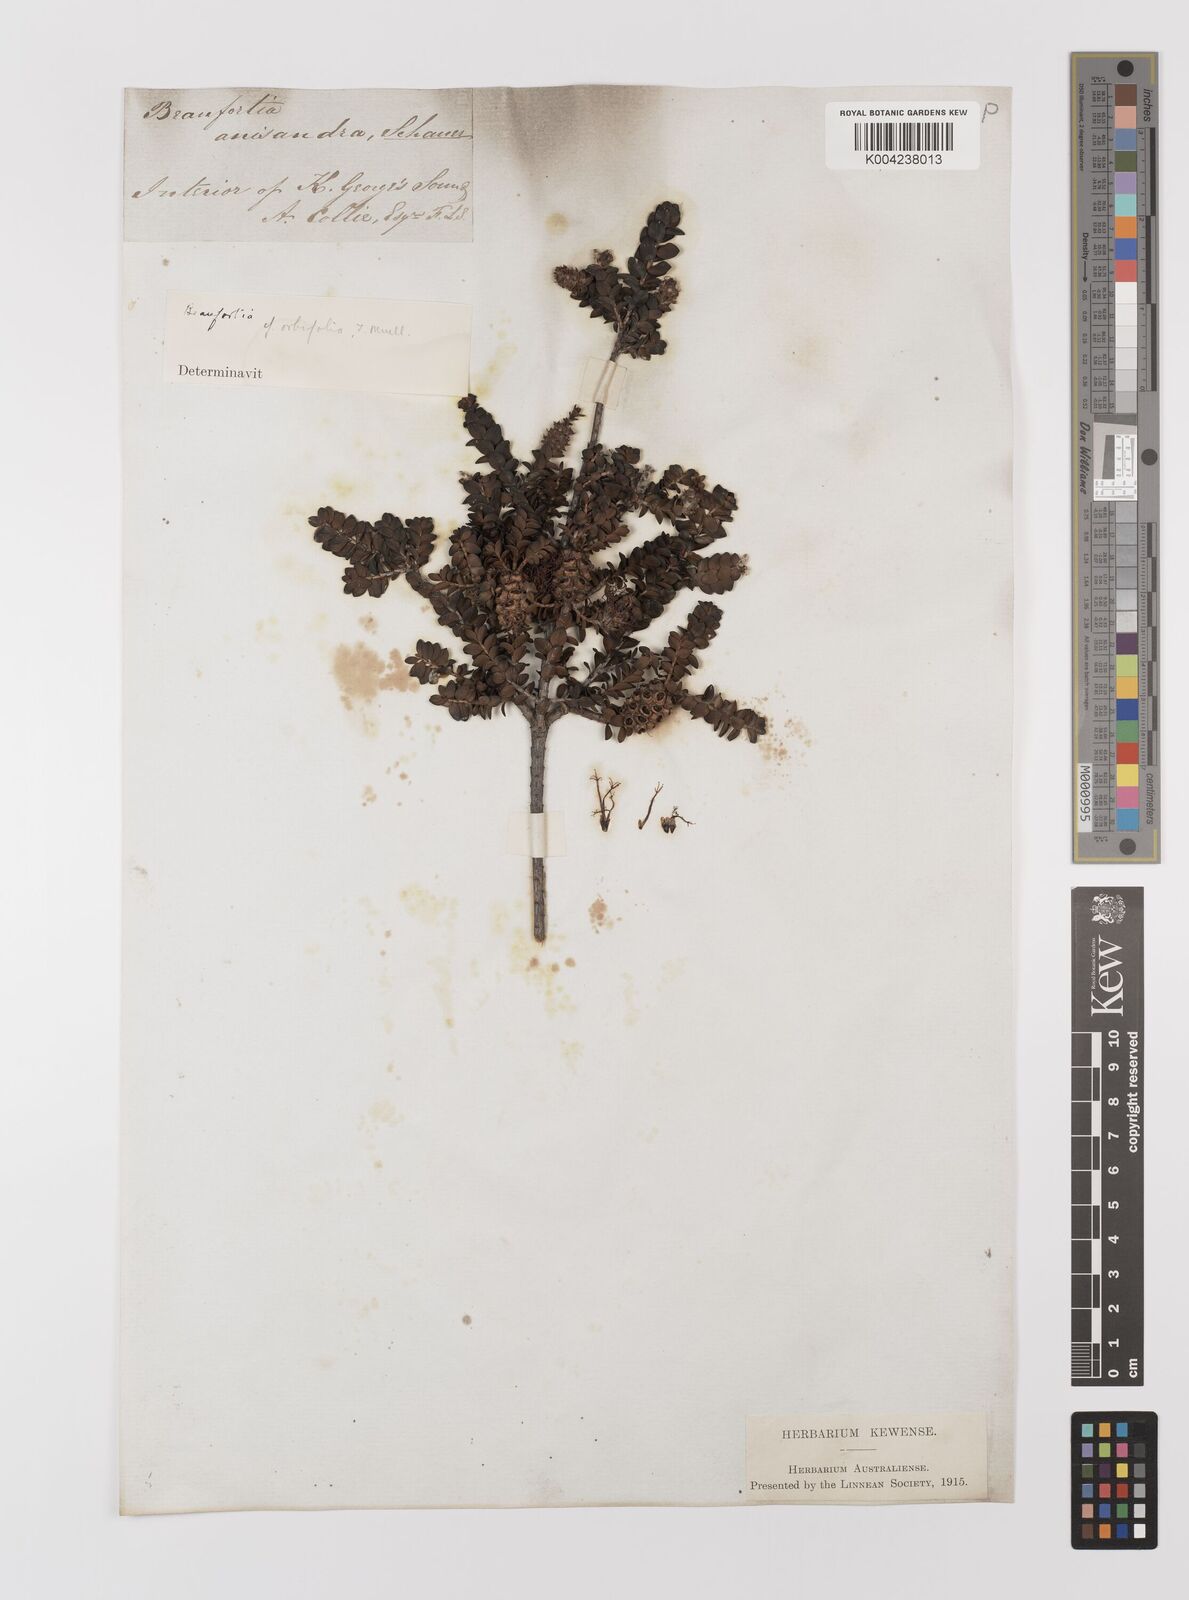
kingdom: Plantae
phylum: Tracheophyta
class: Magnoliopsida
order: Myrtales
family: Myrtaceae
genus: Melaleuca
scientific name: Melaleuca anisandra
